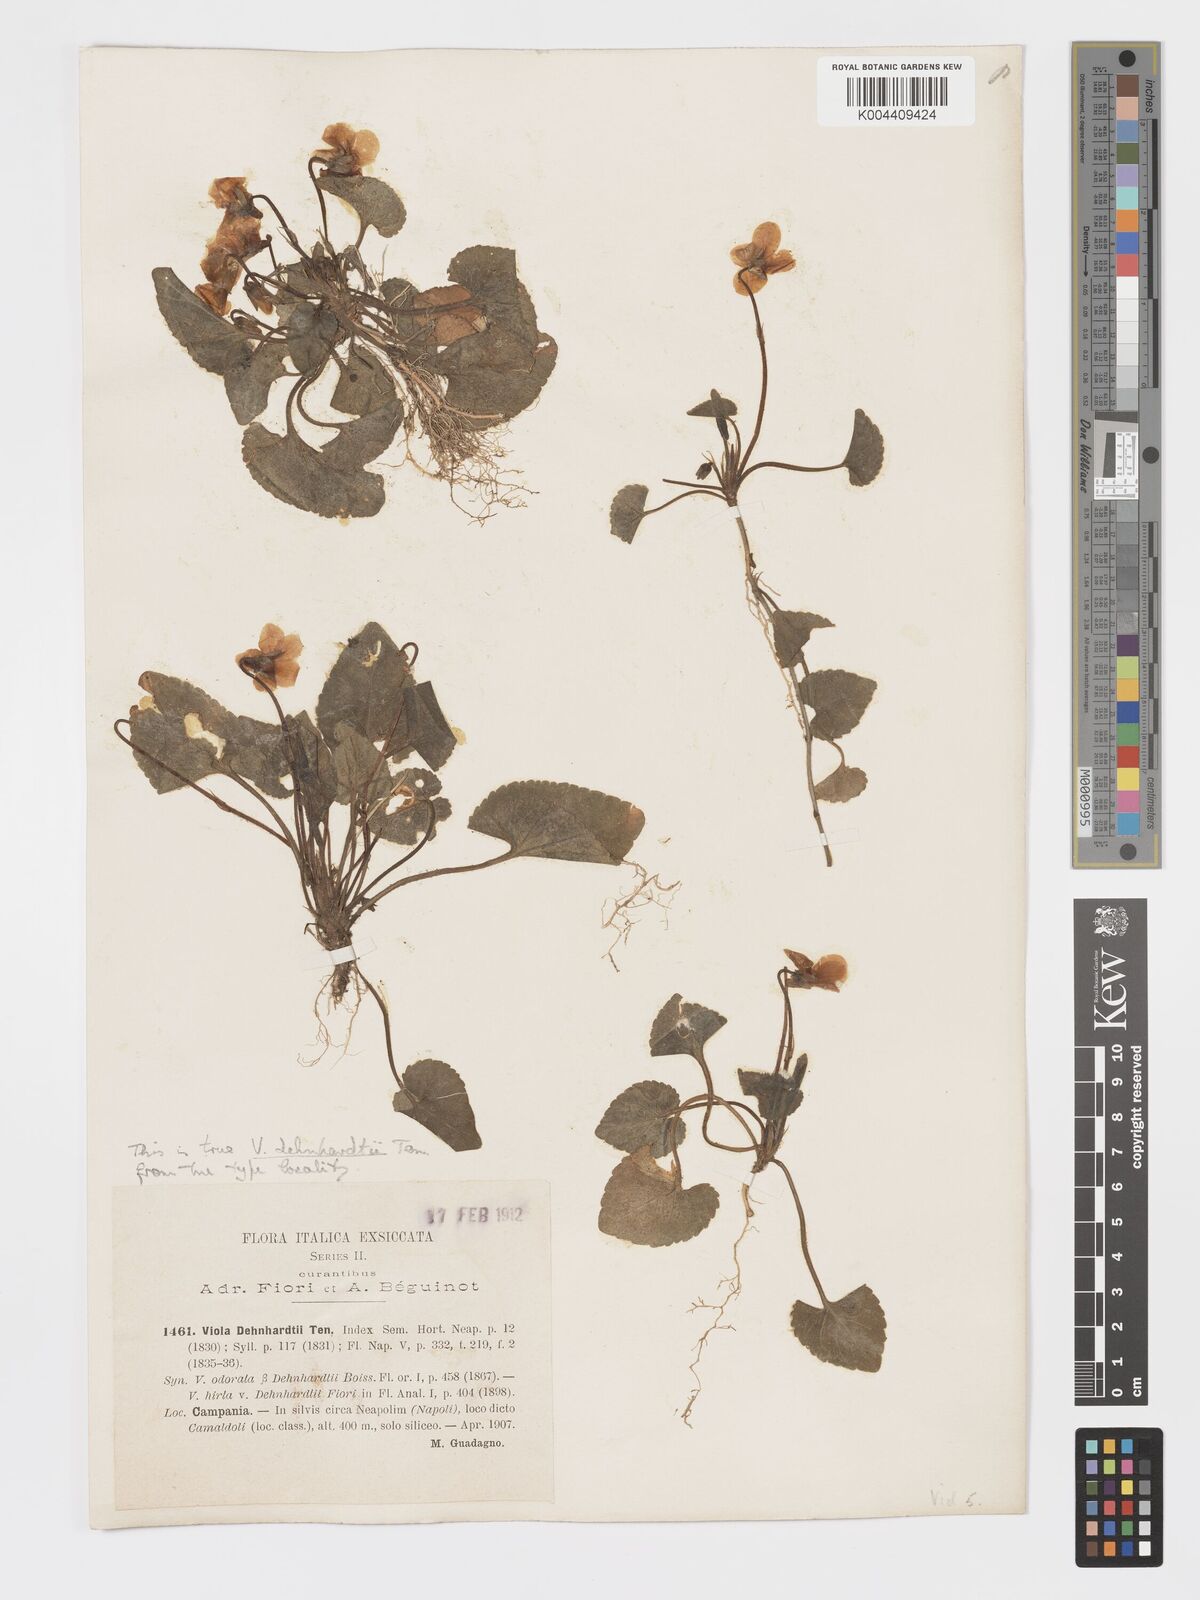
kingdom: Plantae
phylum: Tracheophyta
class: Magnoliopsida
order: Malpighiales
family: Violaceae
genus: Viola
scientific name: Viola alba
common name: White violet
